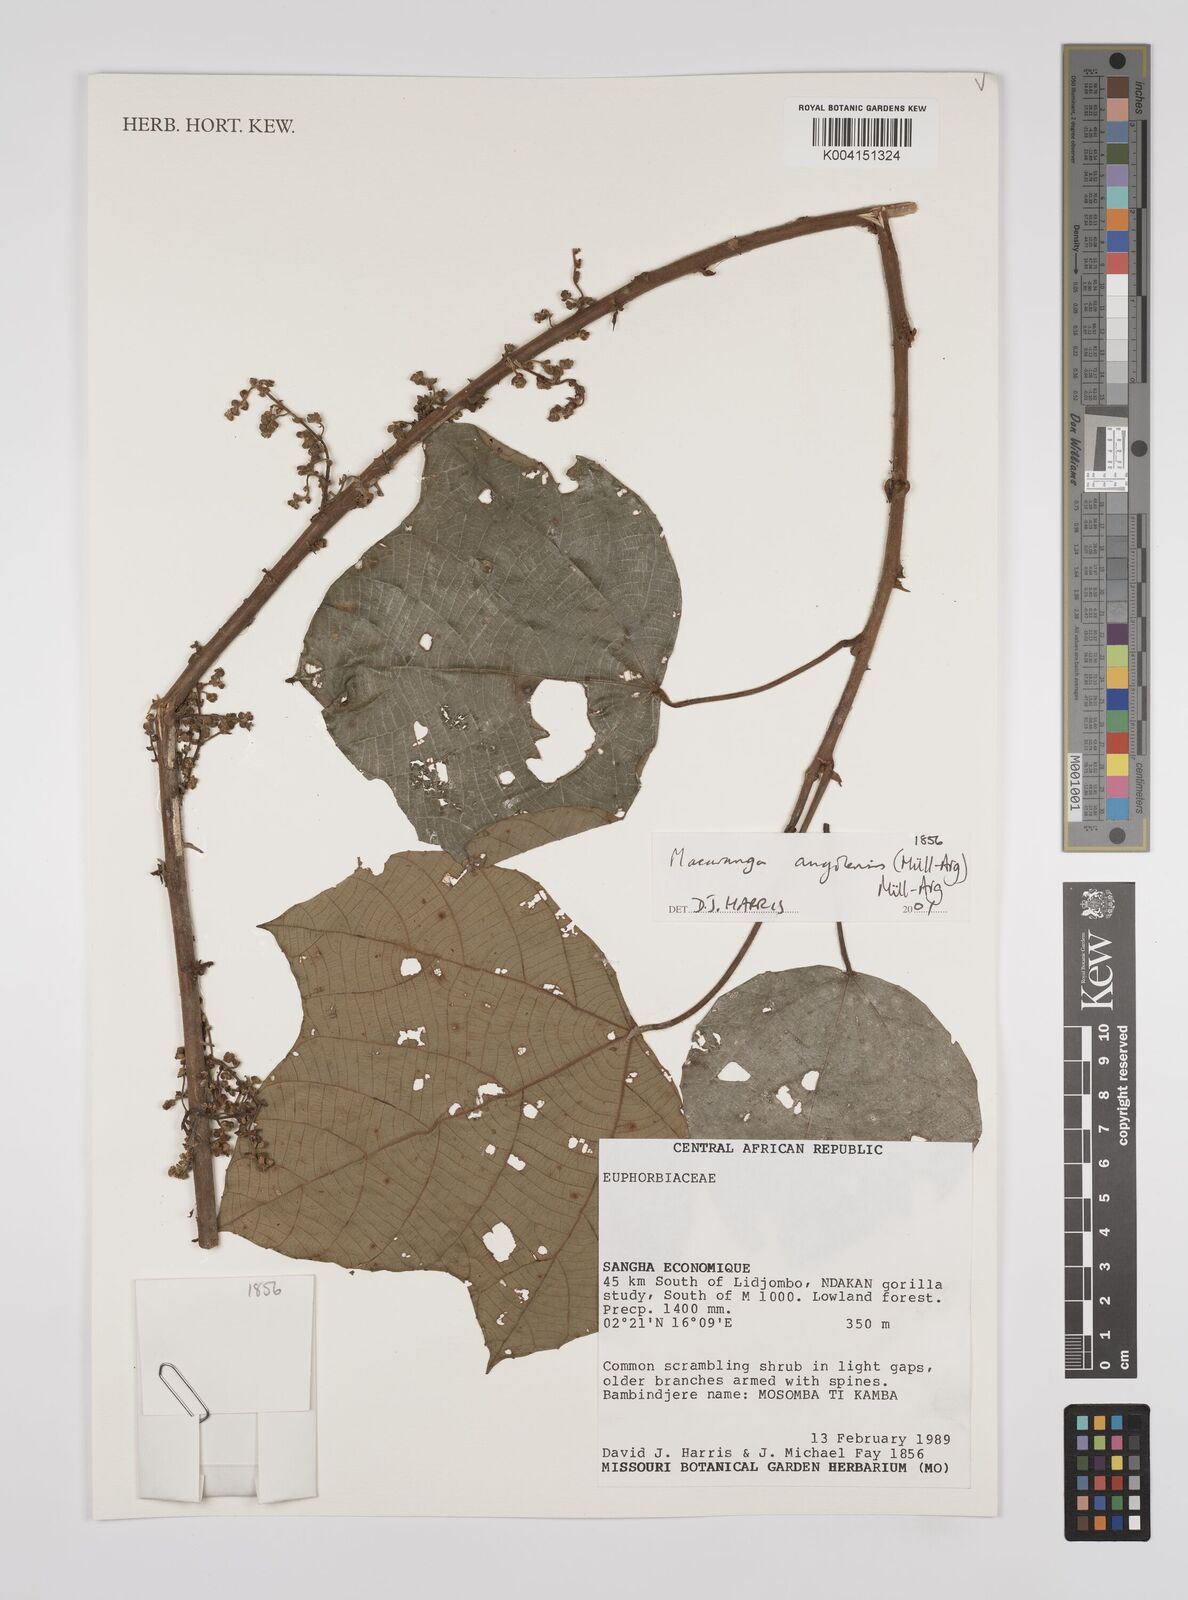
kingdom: Plantae
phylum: Tracheophyta
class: Magnoliopsida
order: Malpighiales
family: Euphorbiaceae
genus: Macaranga
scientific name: Macaranga angolensis
